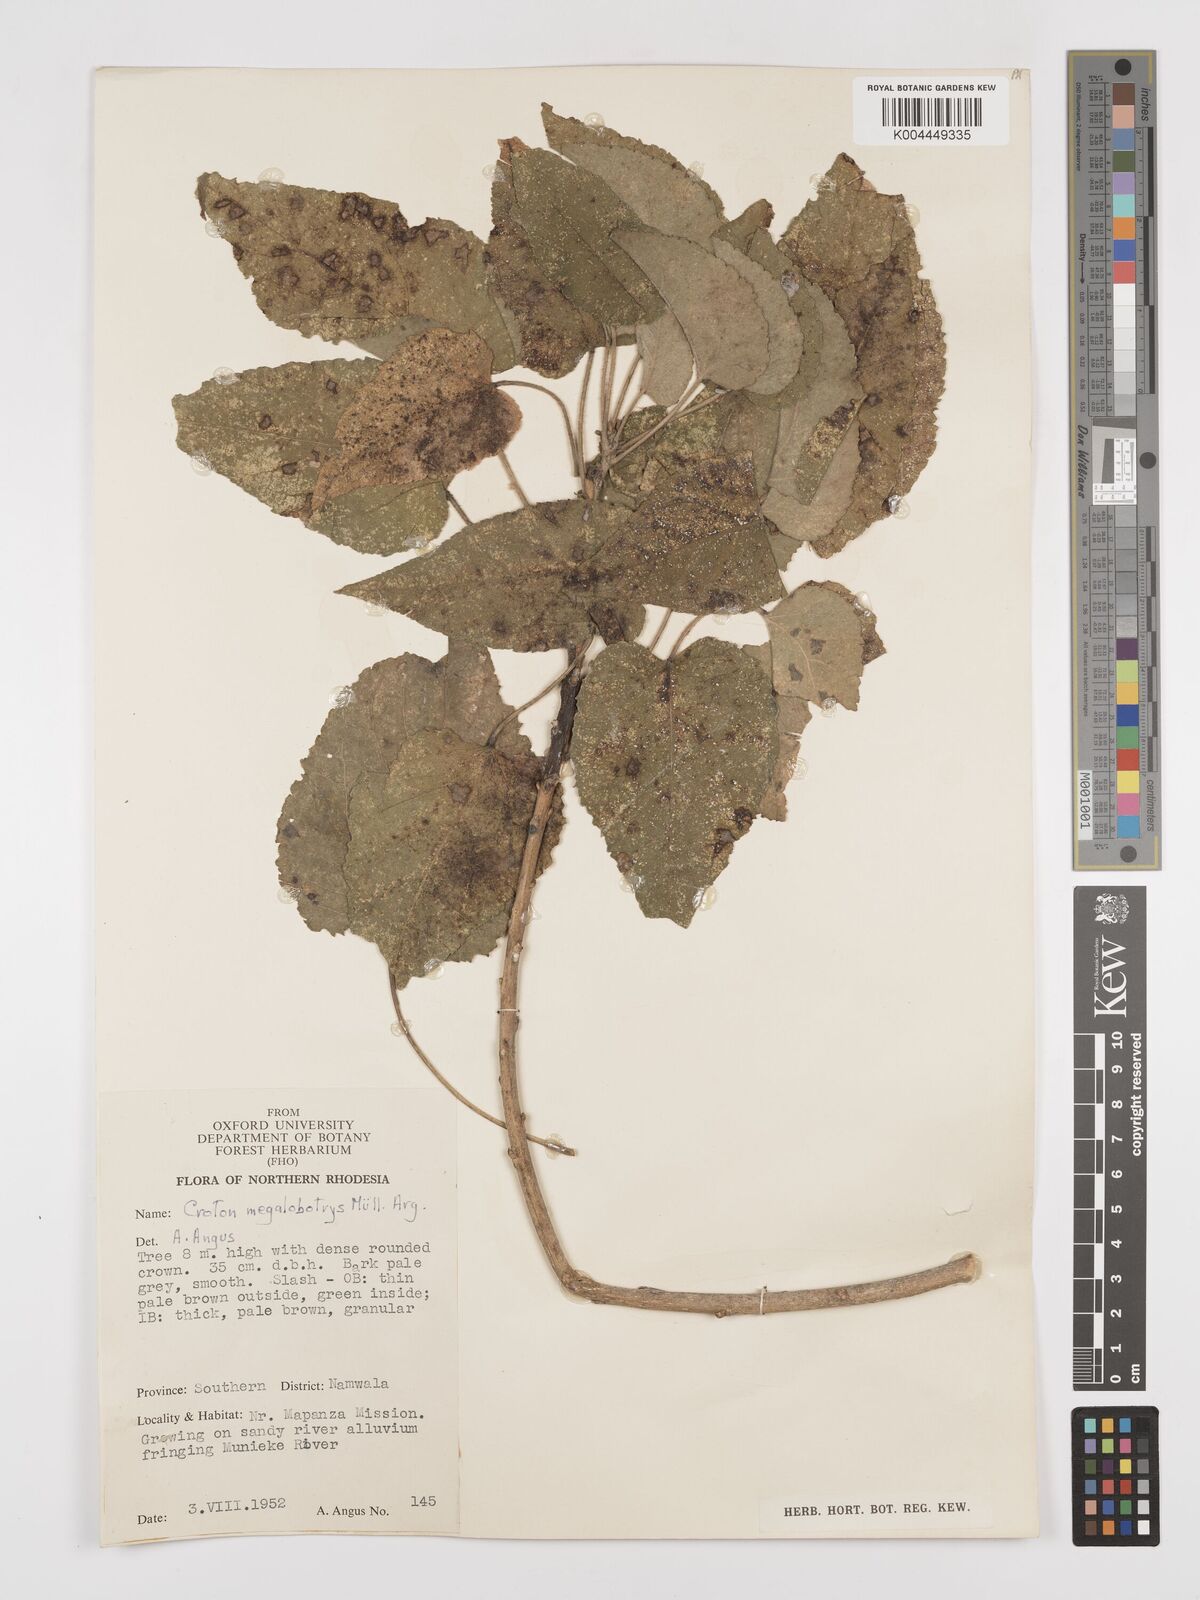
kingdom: Plantae
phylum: Tracheophyta
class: Magnoliopsida
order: Malpighiales
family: Euphorbiaceae
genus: Croton
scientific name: Croton megalobotrys
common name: Large fever berry
